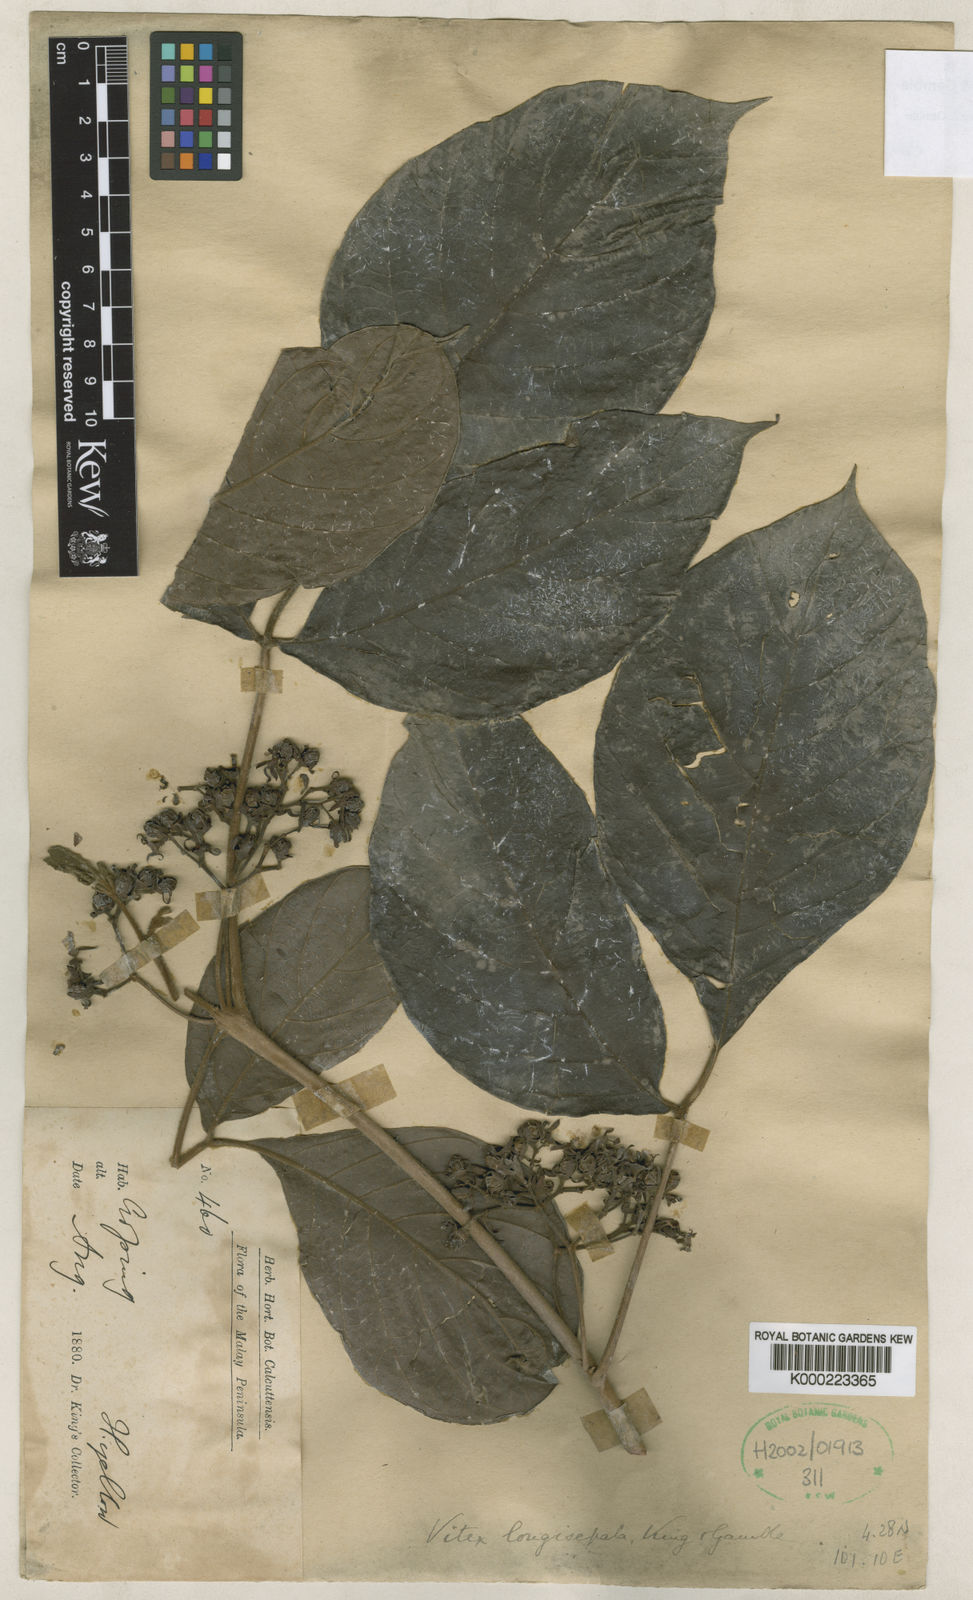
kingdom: Plantae
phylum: Tracheophyta
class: Magnoliopsida
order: Lamiales
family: Lamiaceae
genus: Vitex
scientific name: Vitex longisepala
